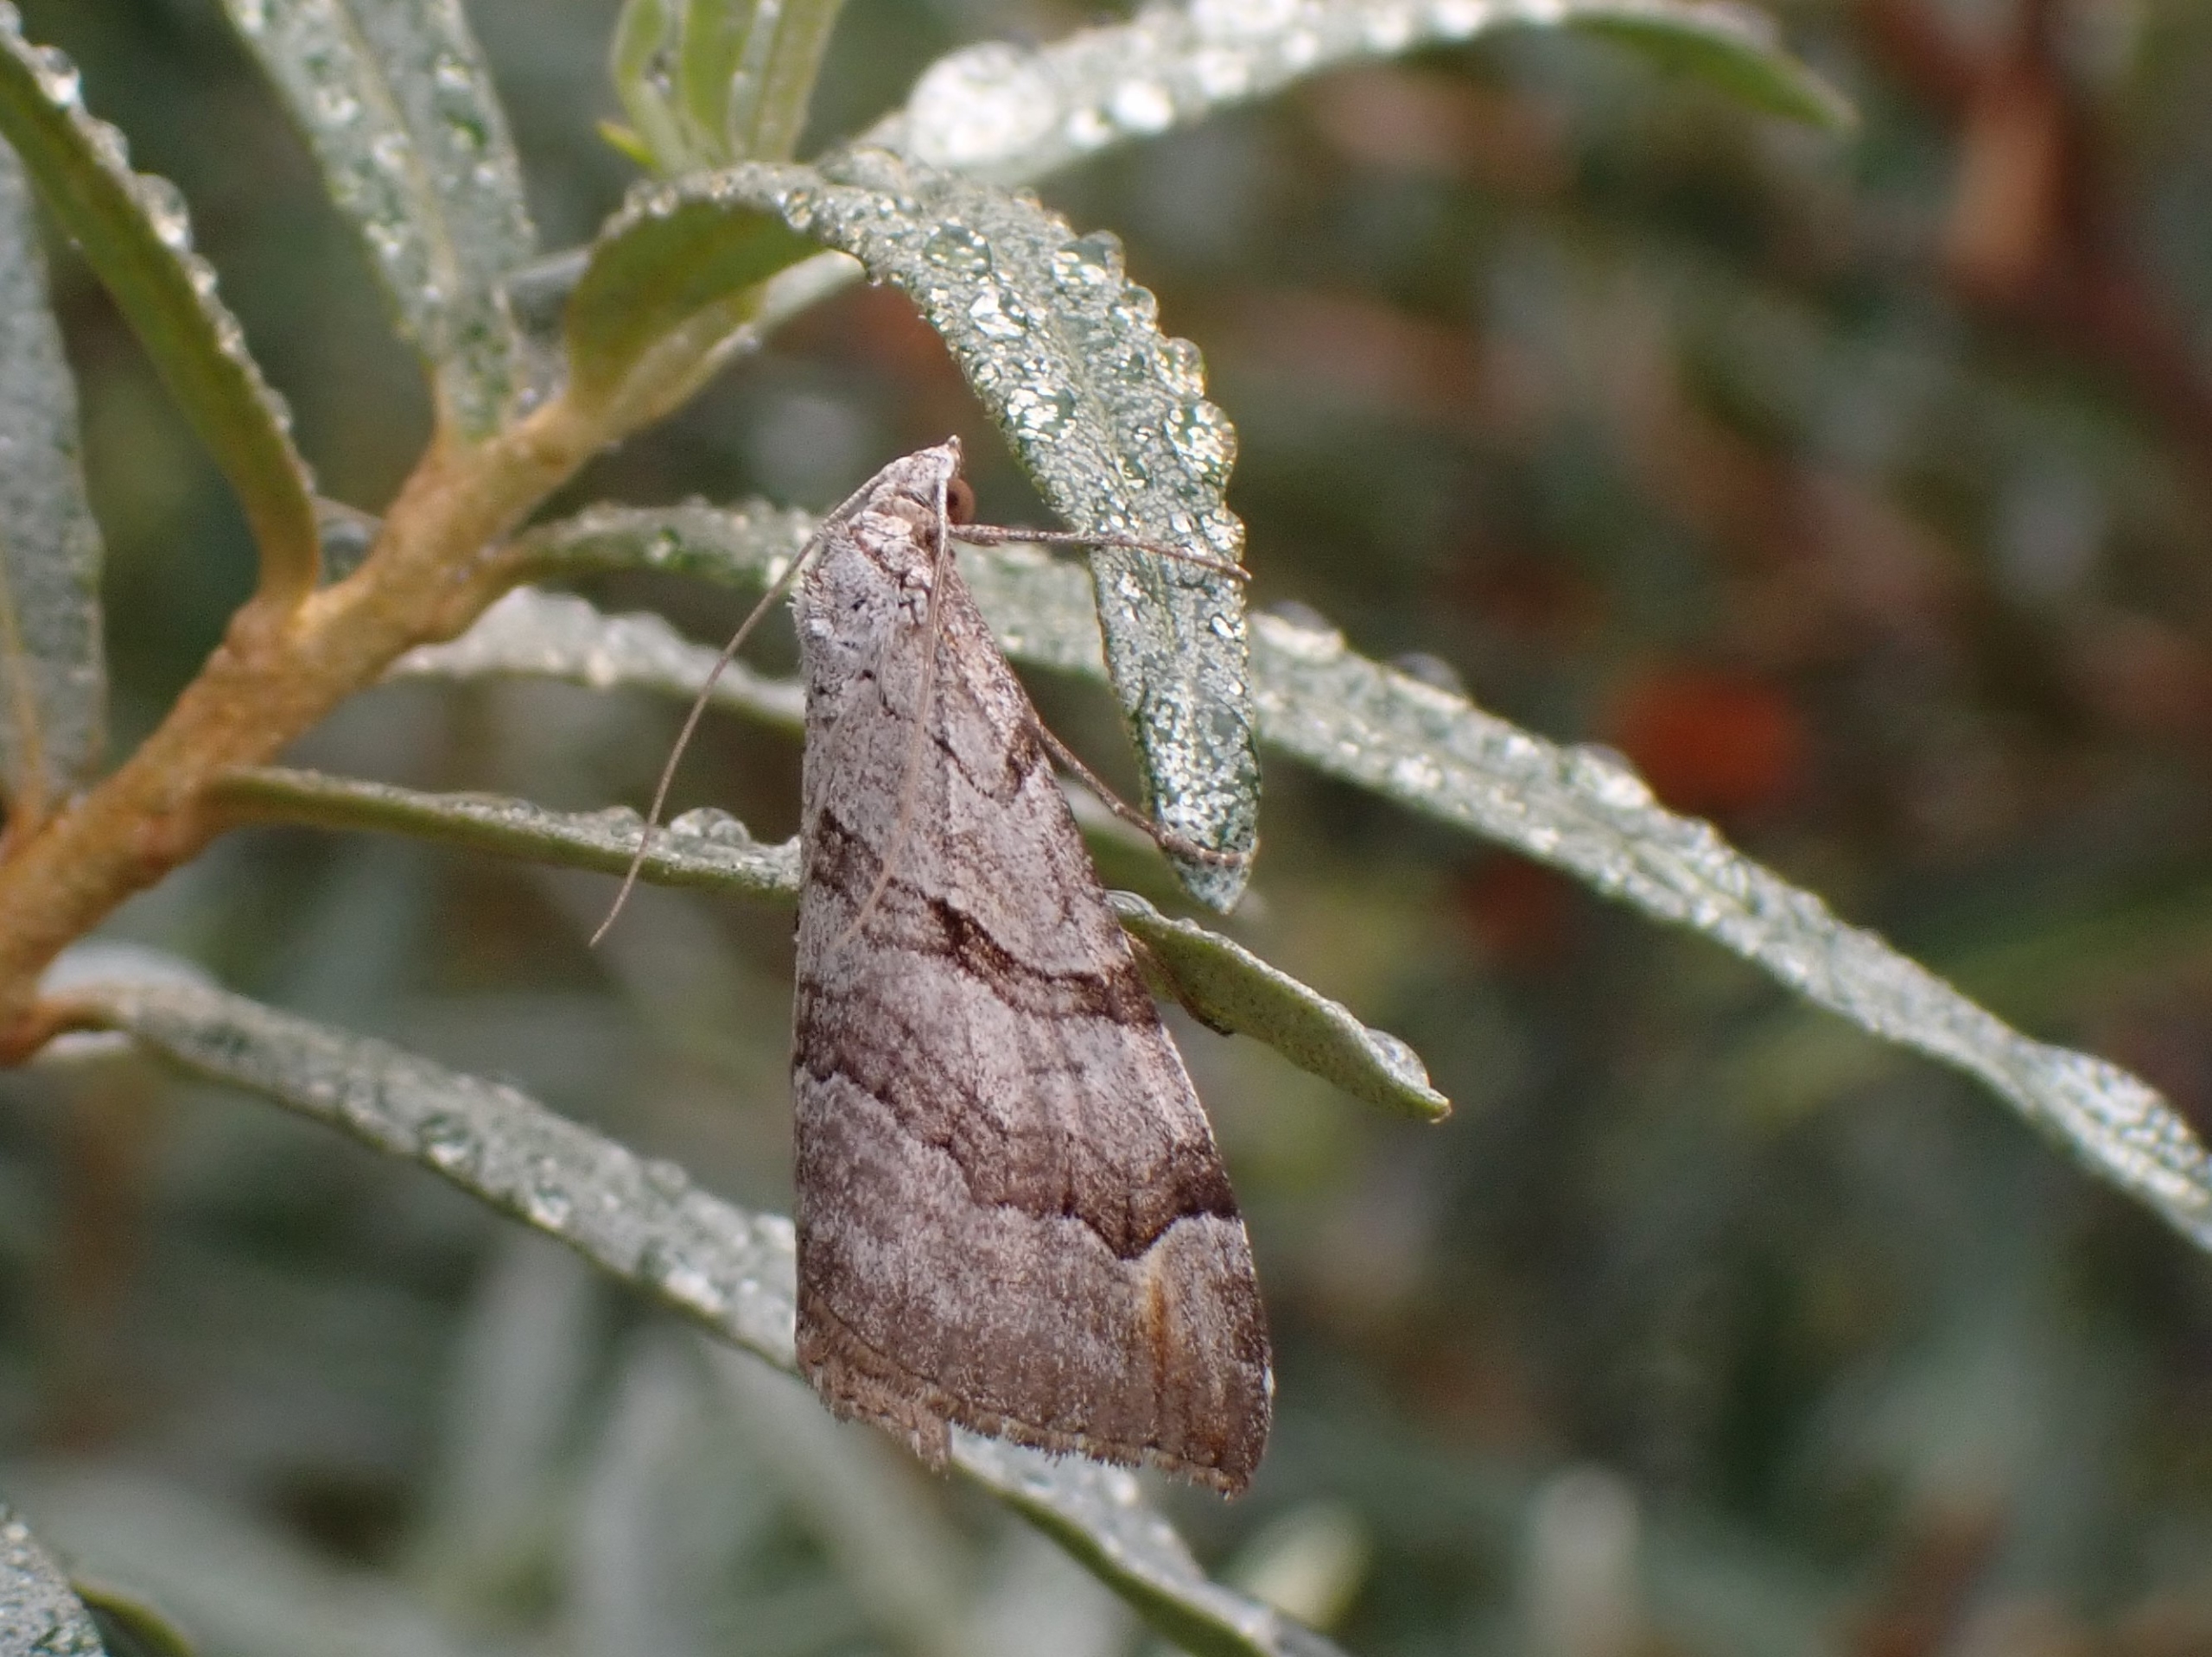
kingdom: Animalia
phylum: Arthropoda
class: Insecta
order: Lepidoptera
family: Geometridae
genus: Aplocera
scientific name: Aplocera efformata
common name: Perikonmåler
